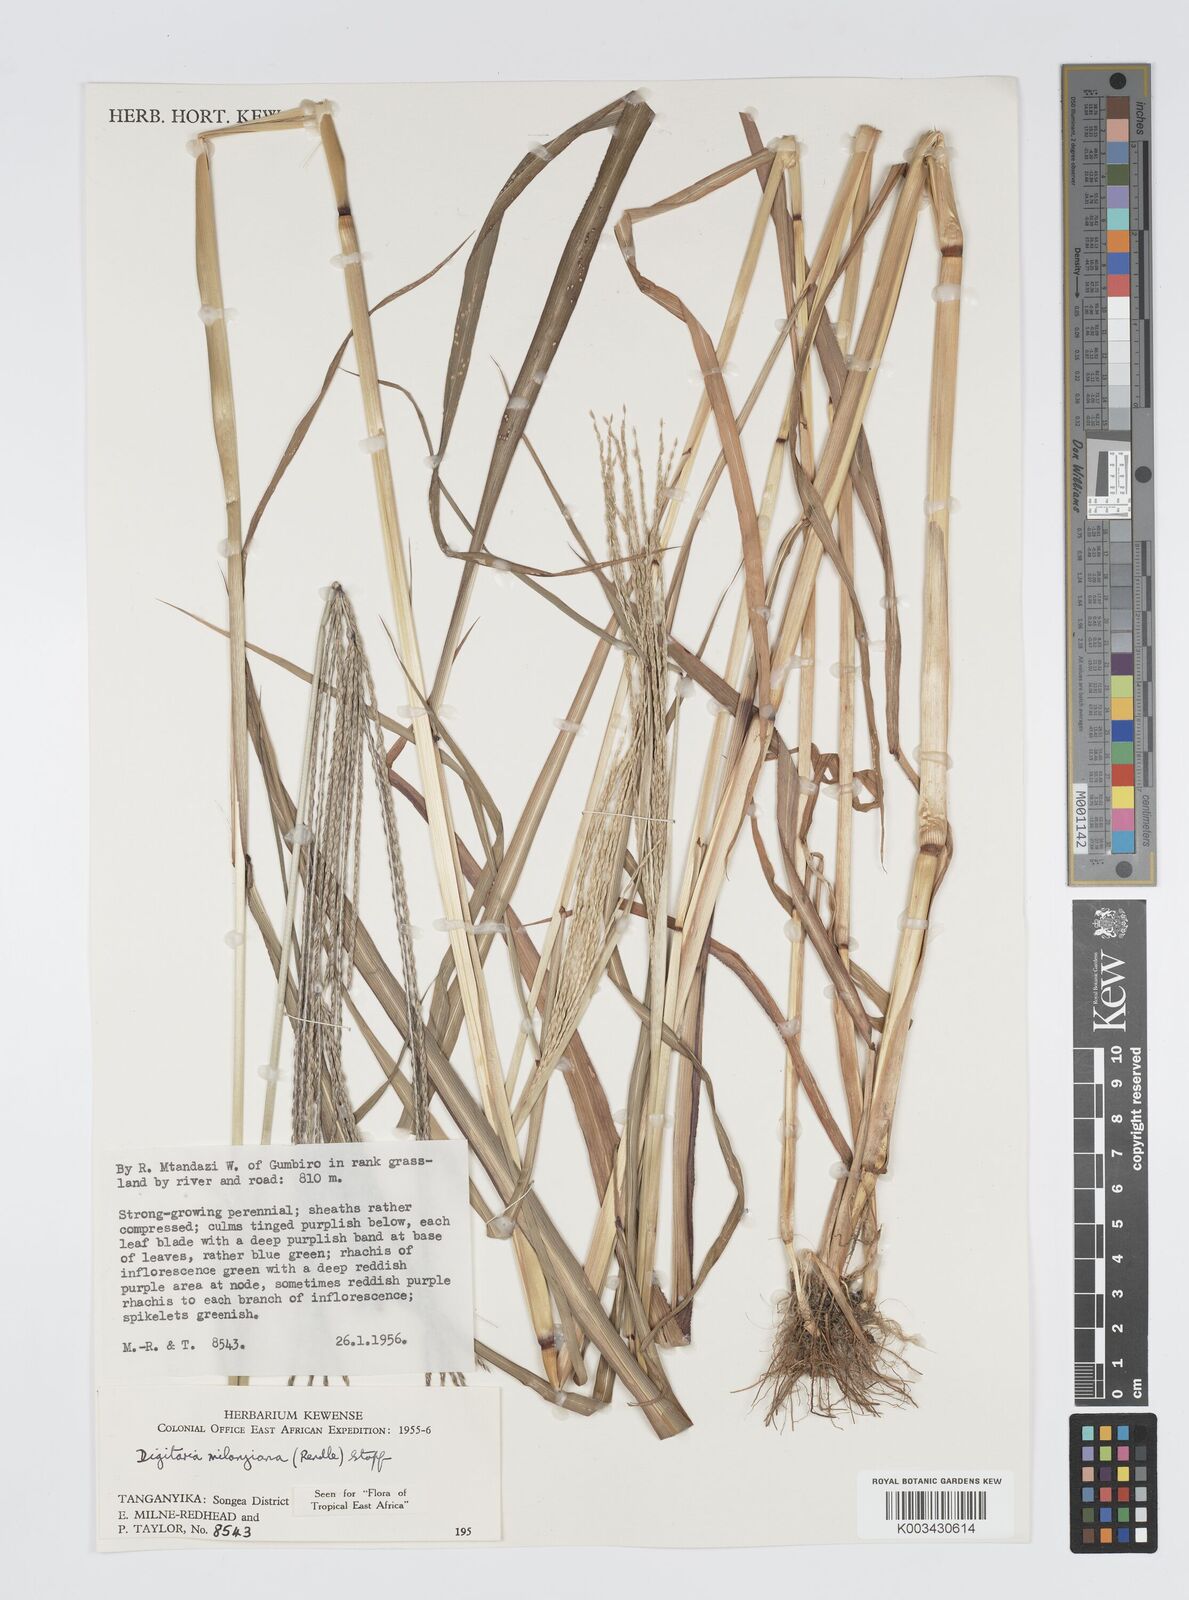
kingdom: Plantae
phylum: Tracheophyta
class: Liliopsida
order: Poales
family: Poaceae
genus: Digitaria
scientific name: Digitaria milanjiana
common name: Madagascar crabgrass
